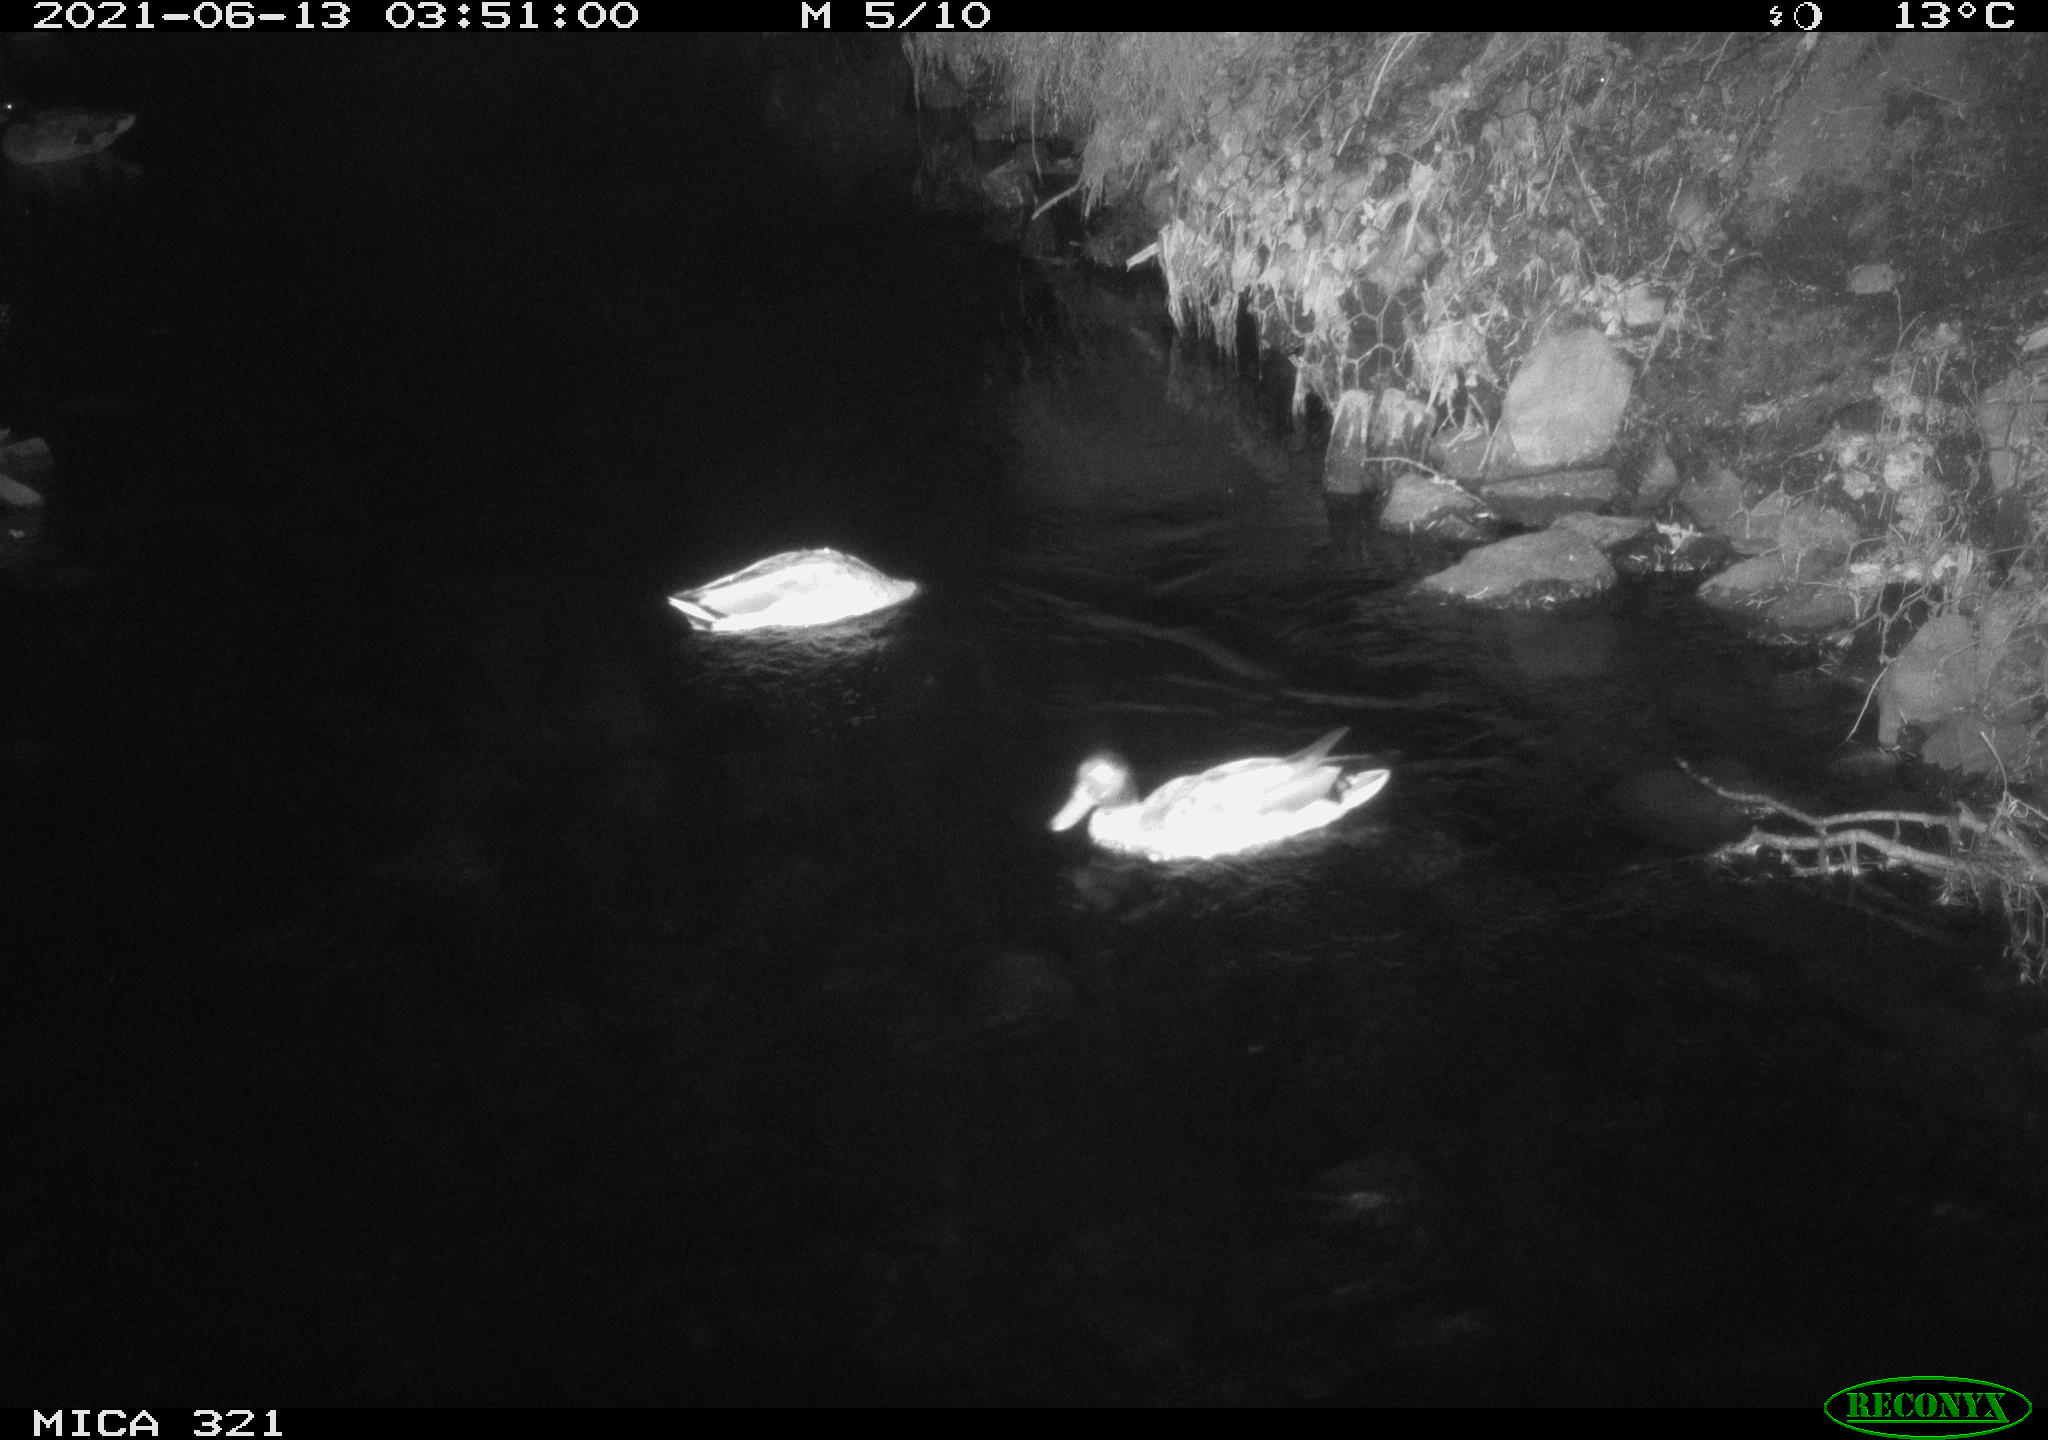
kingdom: Animalia
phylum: Chordata
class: Aves
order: Anseriformes
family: Anatidae
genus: Anas
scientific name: Anas platyrhynchos
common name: Mallard
